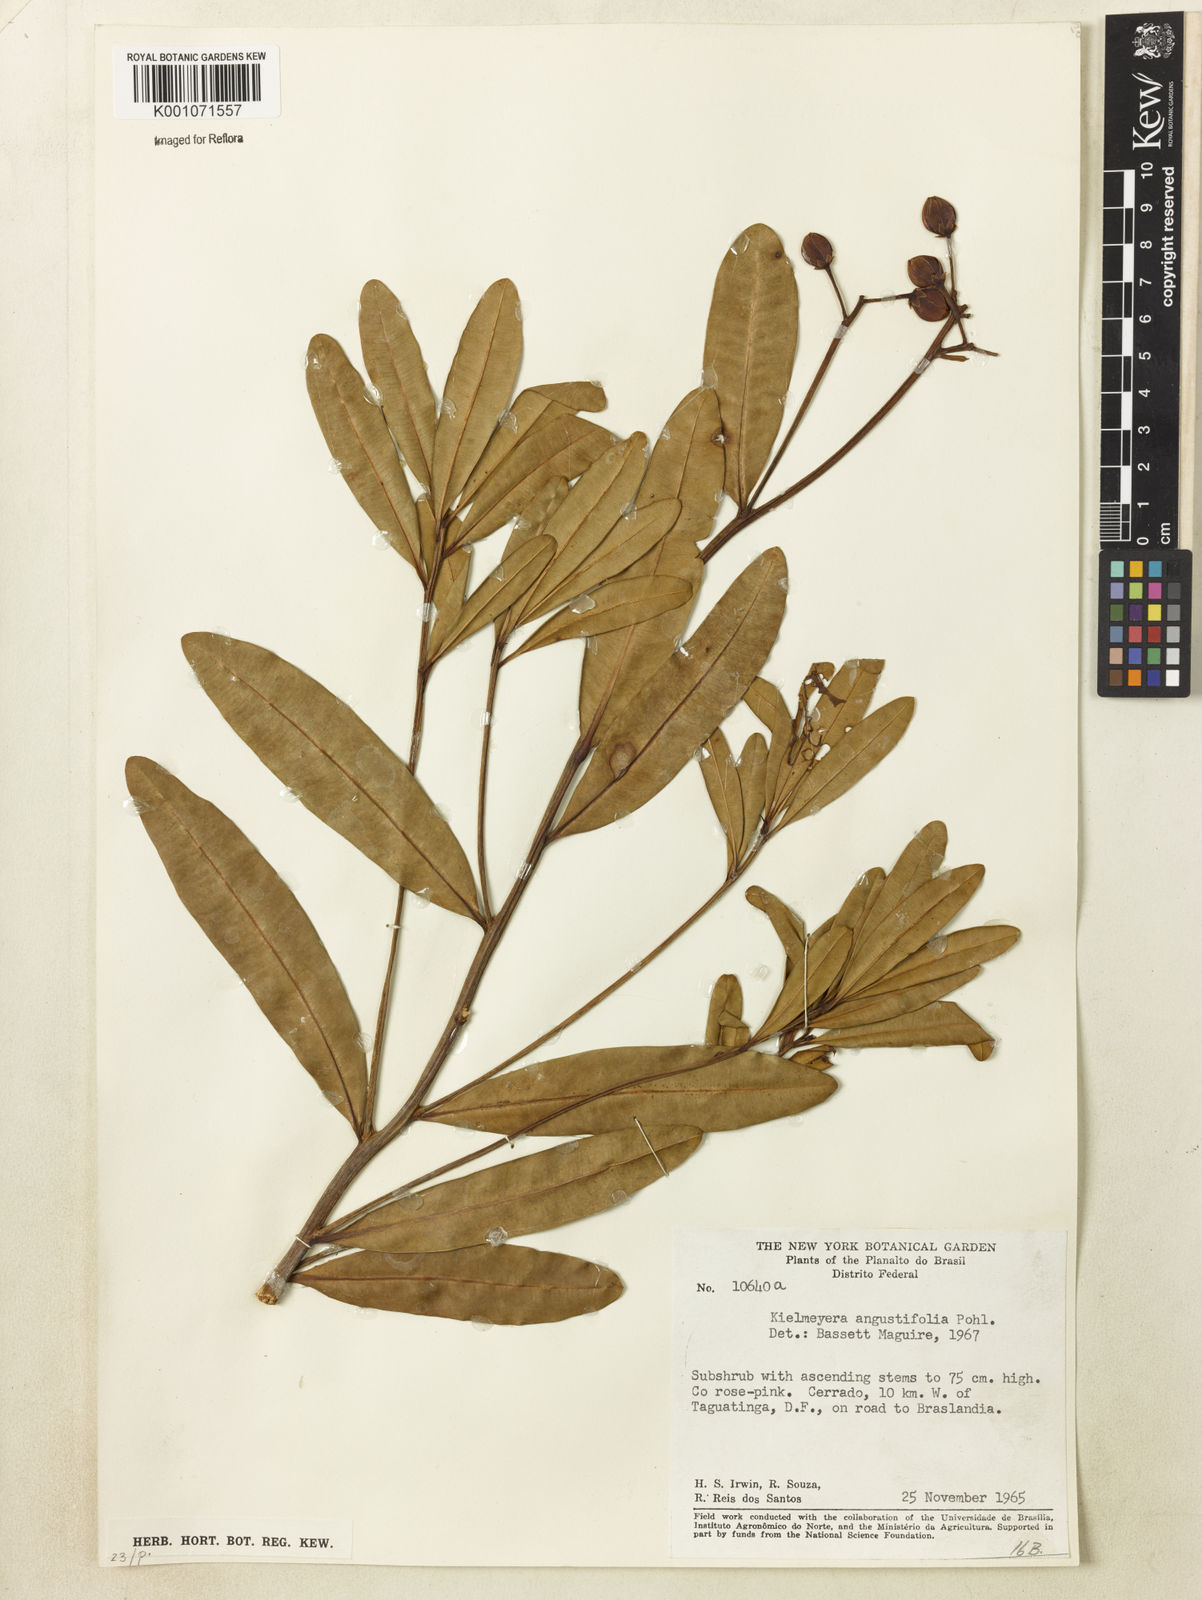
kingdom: Plantae
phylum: Tracheophyta
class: Magnoliopsida
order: Malpighiales
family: Calophyllaceae
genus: Kielmeyera
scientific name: Kielmeyera pumila
